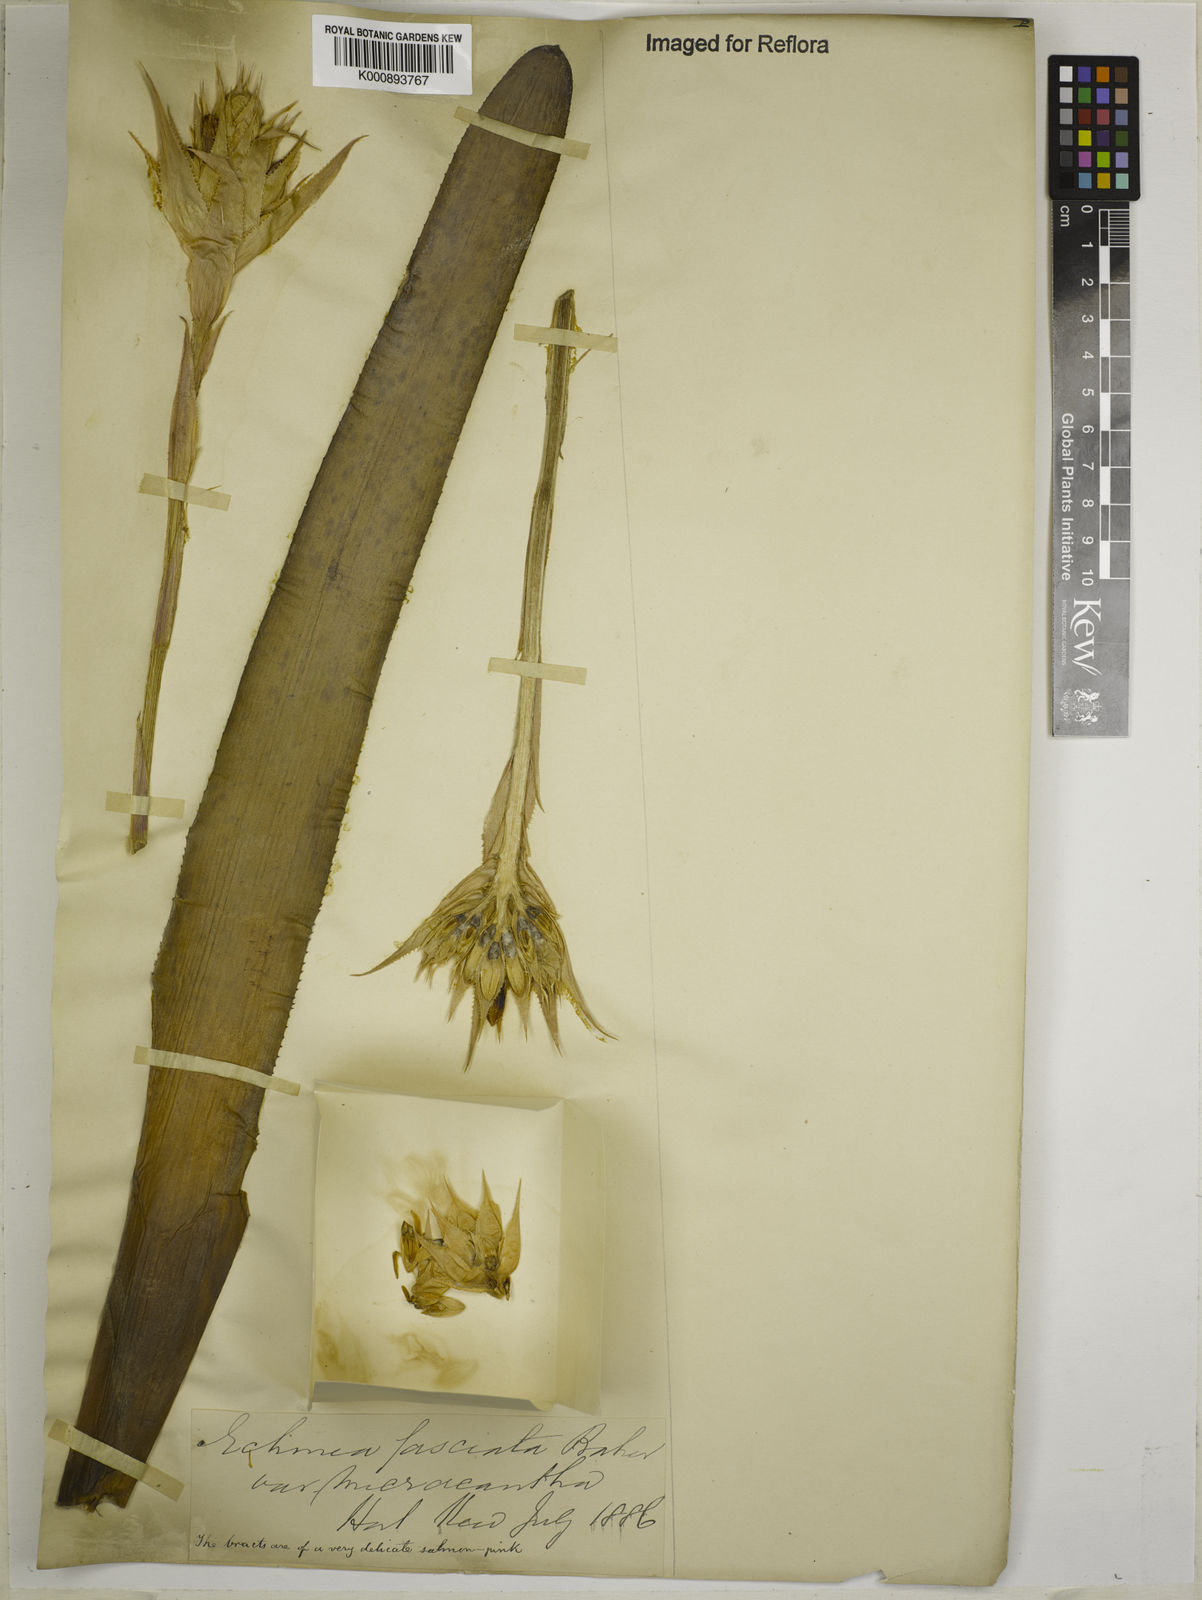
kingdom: Plantae
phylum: Tracheophyta
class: Liliopsida
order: Poales
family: Bromeliaceae
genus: Aechmea
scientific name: Aechmea fasciata
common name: Urnplant
